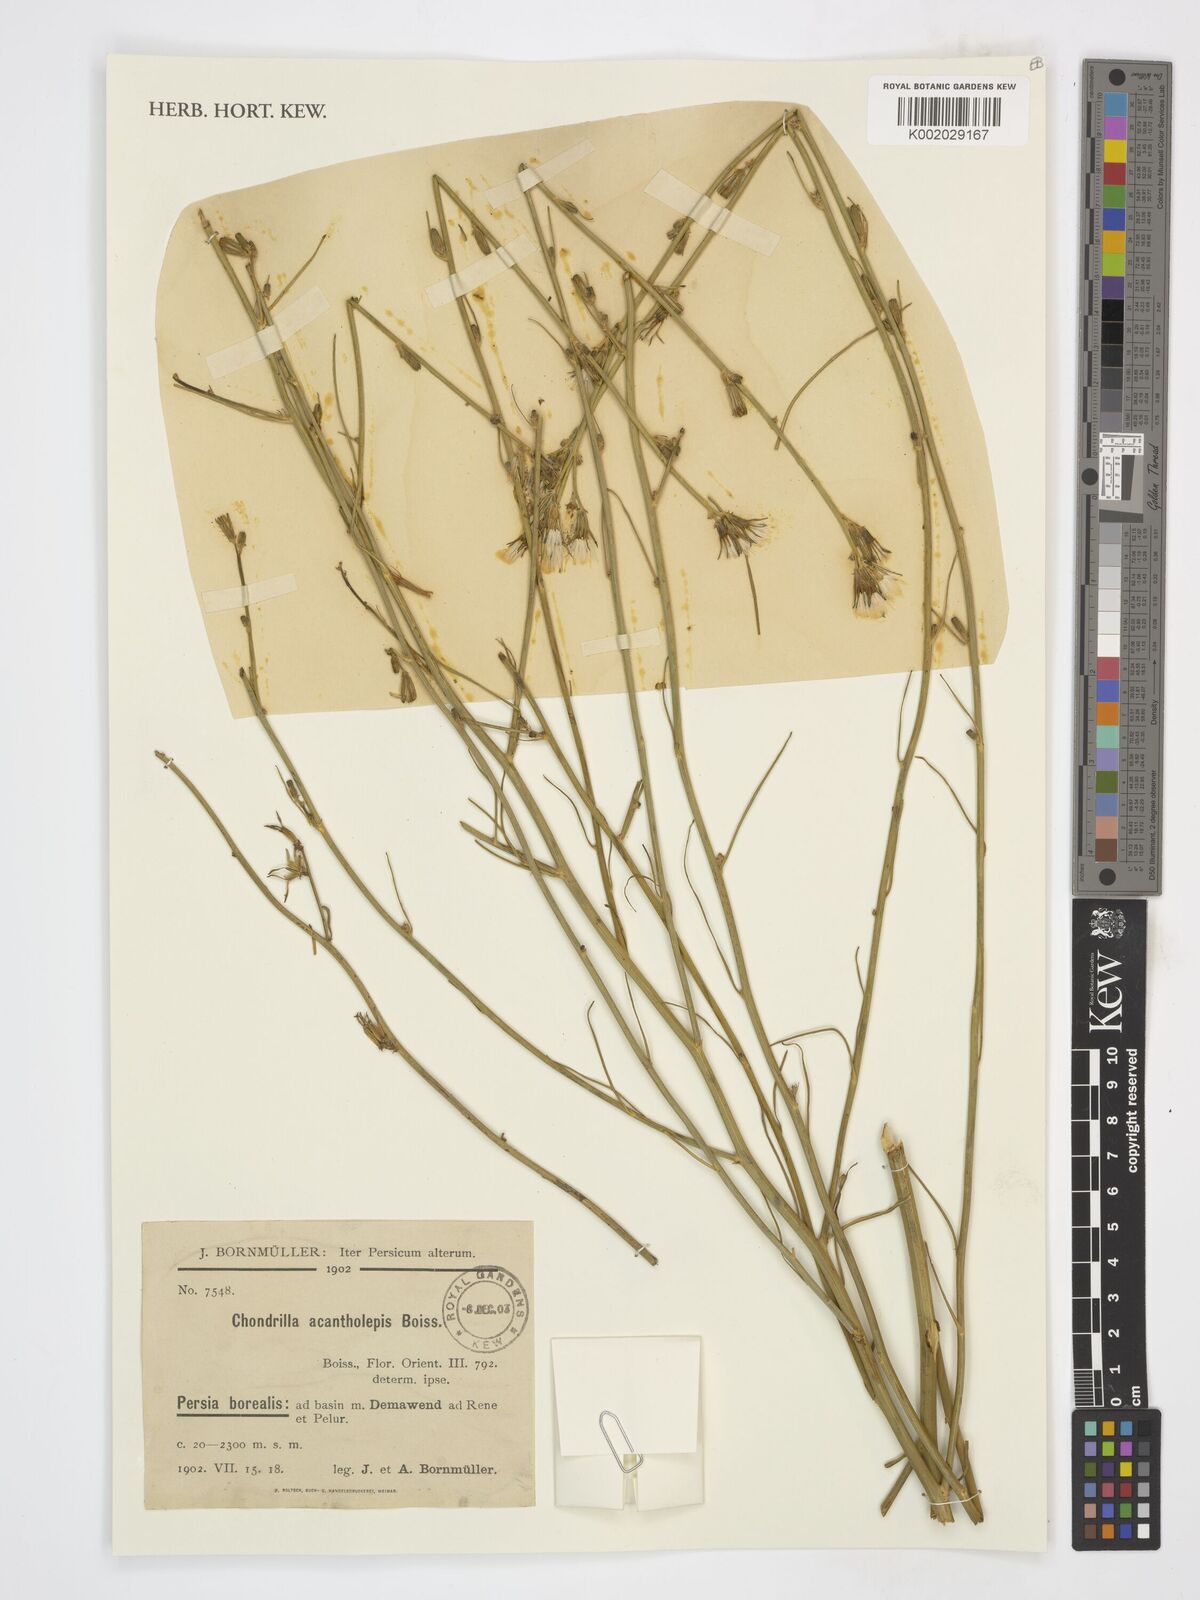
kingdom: Plantae
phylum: Tracheophyta
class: Magnoliopsida
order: Asterales
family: Asteraceae
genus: Chondrilla
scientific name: Chondrilla juncea
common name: Skeleton weed
